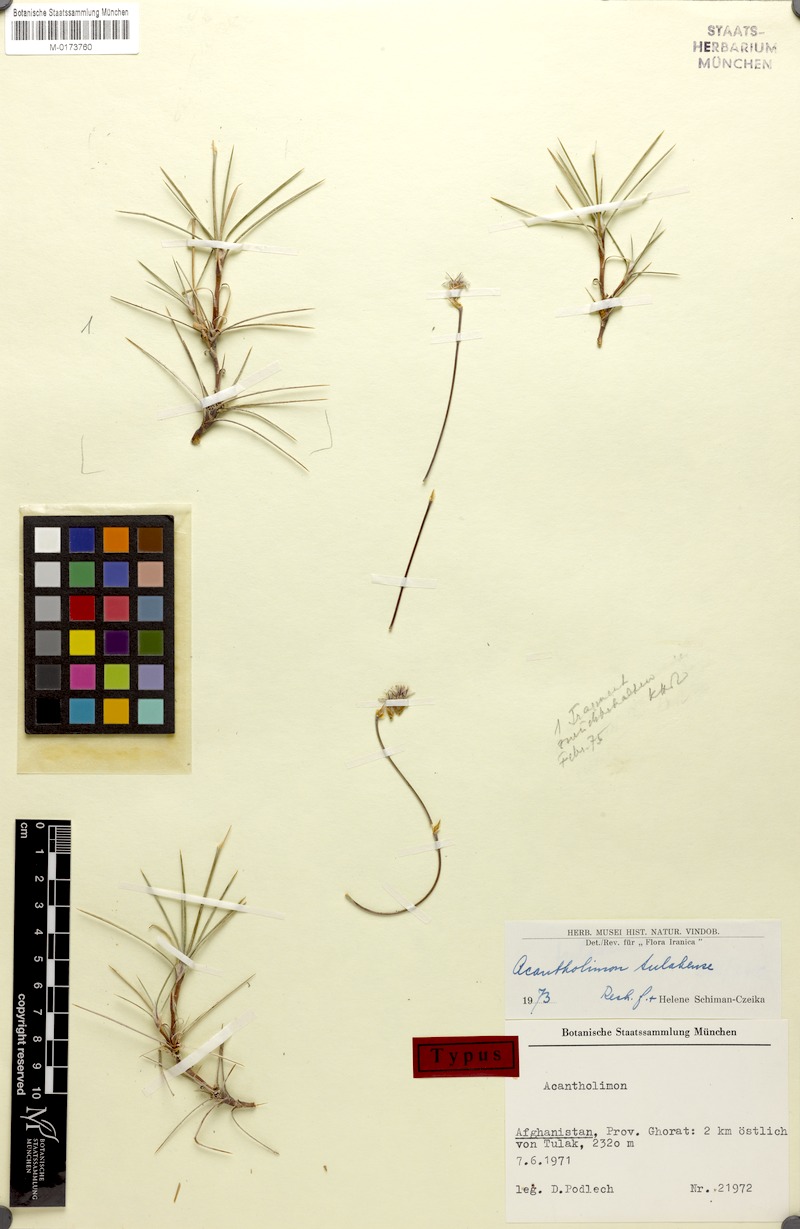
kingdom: Plantae
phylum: Tracheophyta
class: Magnoliopsida
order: Caryophyllales
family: Plumbaginaceae
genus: Acantholimon
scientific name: Acantholimon tulakense
